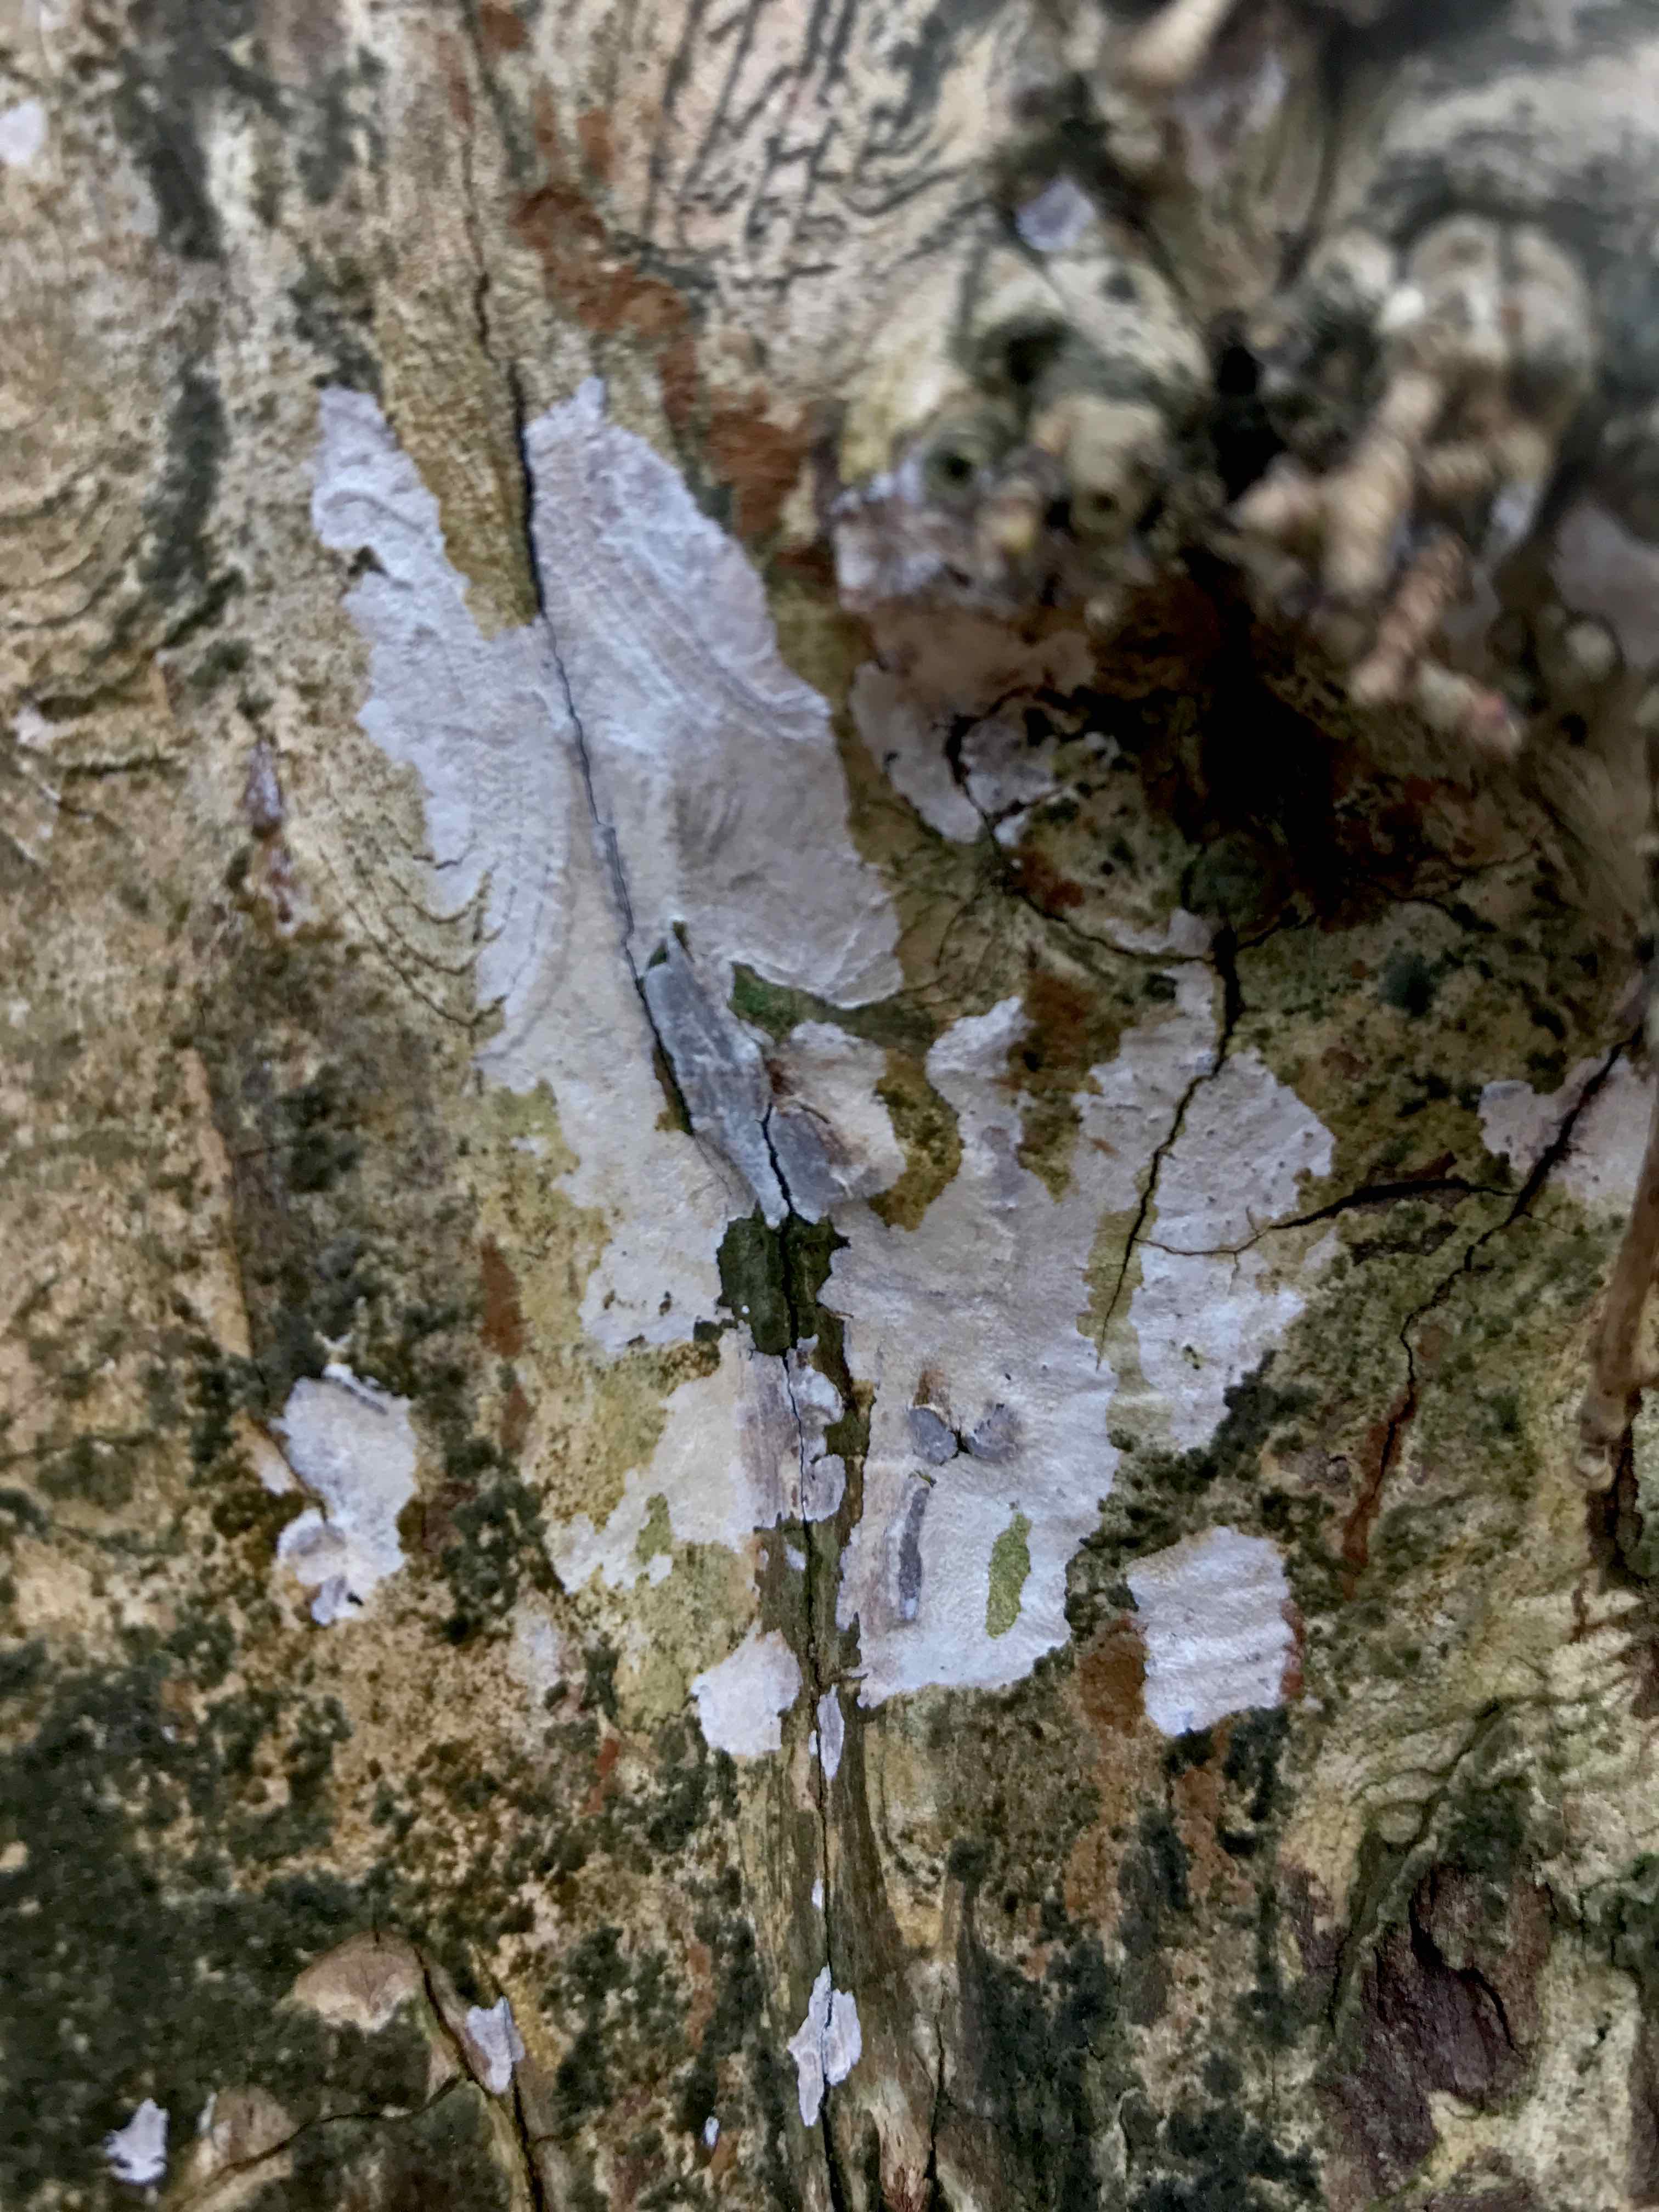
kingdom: Fungi
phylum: Basidiomycota
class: Agaricomycetes
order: Agaricales
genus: Dendrothele
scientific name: Dendrothele acerina
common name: navr-kalkplet
